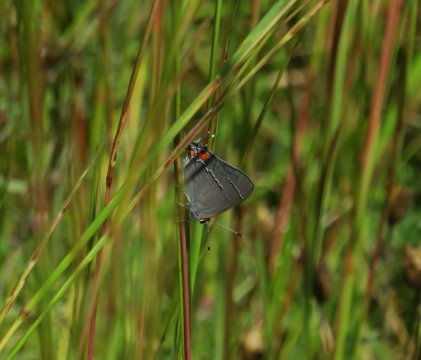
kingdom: Animalia
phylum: Arthropoda
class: Insecta
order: Lepidoptera
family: Lycaenidae
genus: Strymon
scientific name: Strymon melinus
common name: Gray Hairstreak
